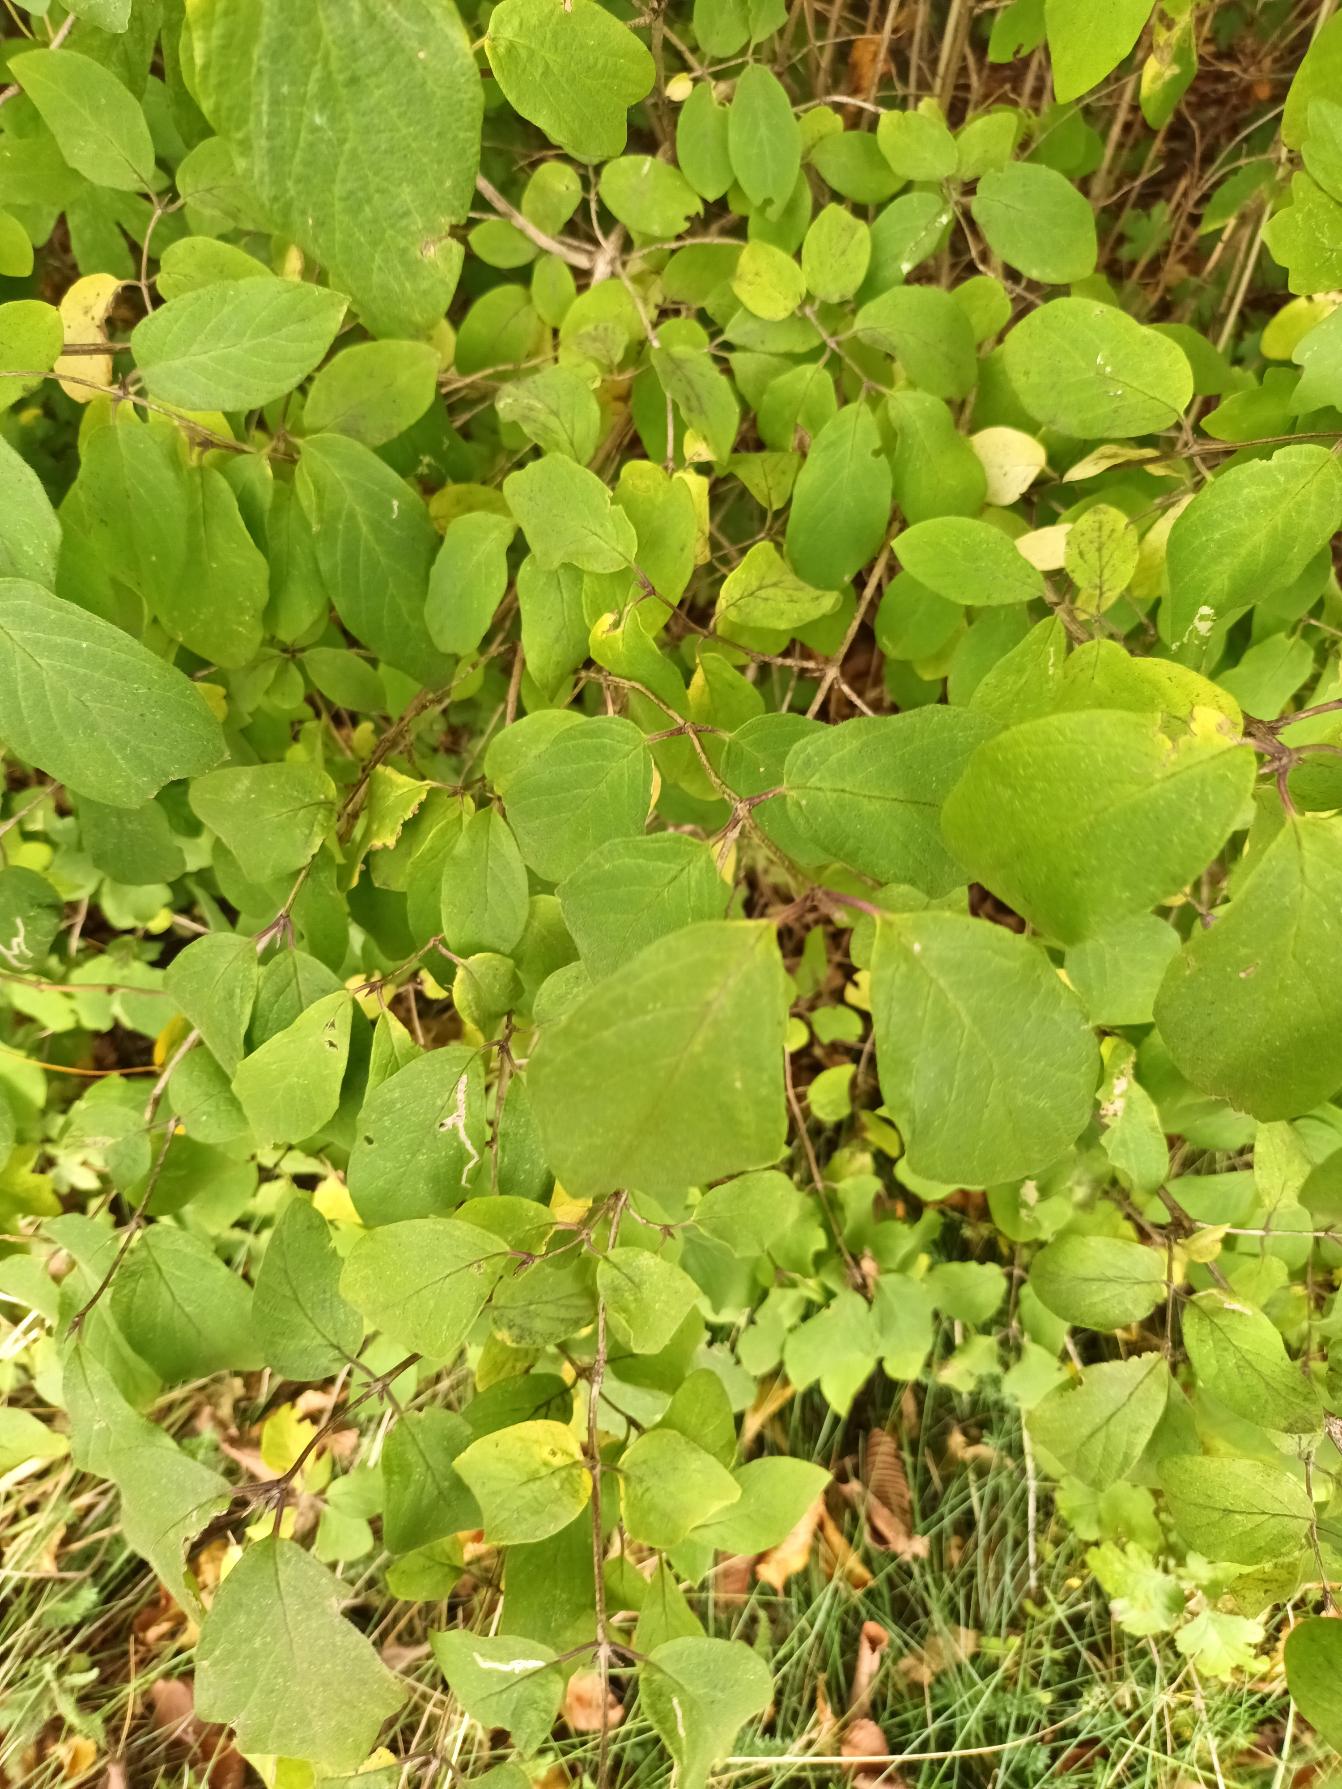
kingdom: Plantae
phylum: Tracheophyta
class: Magnoliopsida
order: Dipsacales
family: Caprifoliaceae
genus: Lonicera
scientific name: Lonicera xylosteum
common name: Dunet gedeblad
